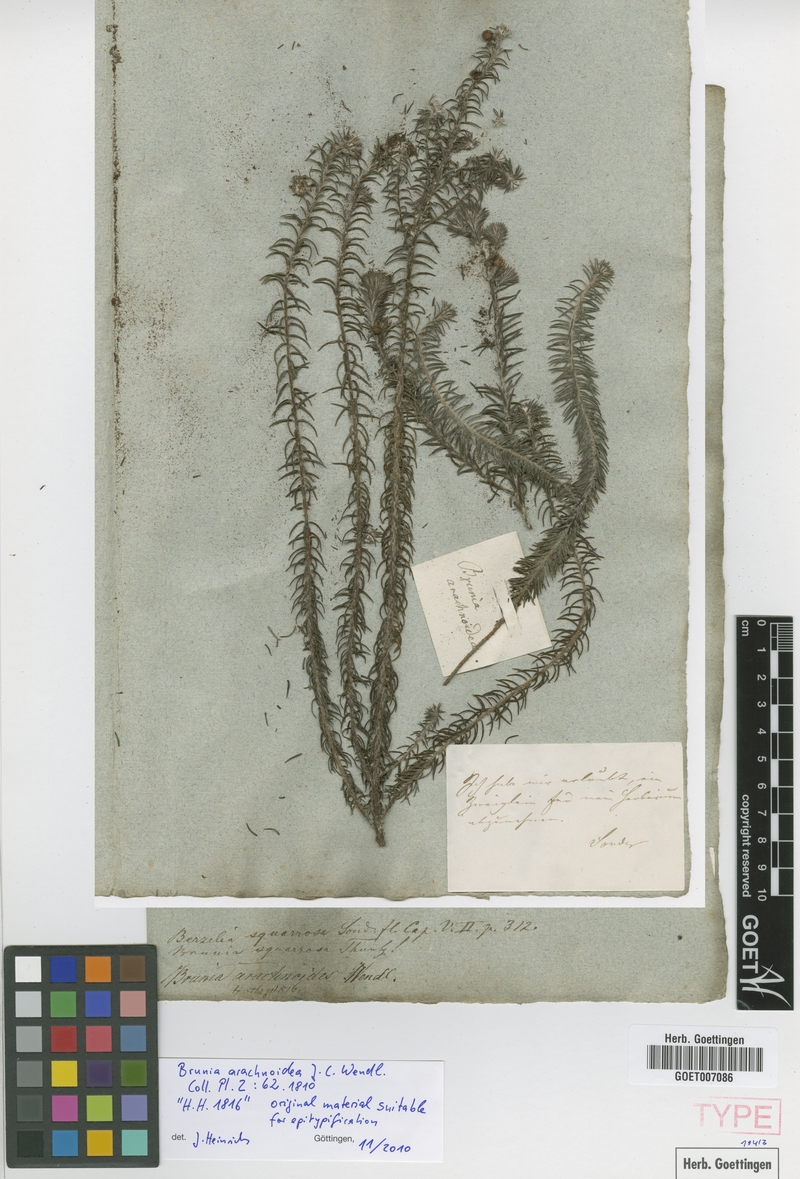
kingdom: Plantae
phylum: Tracheophyta
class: Magnoliopsida
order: Bruniales
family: Bruniaceae
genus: Berzelia
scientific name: Berzelia squarrosa
